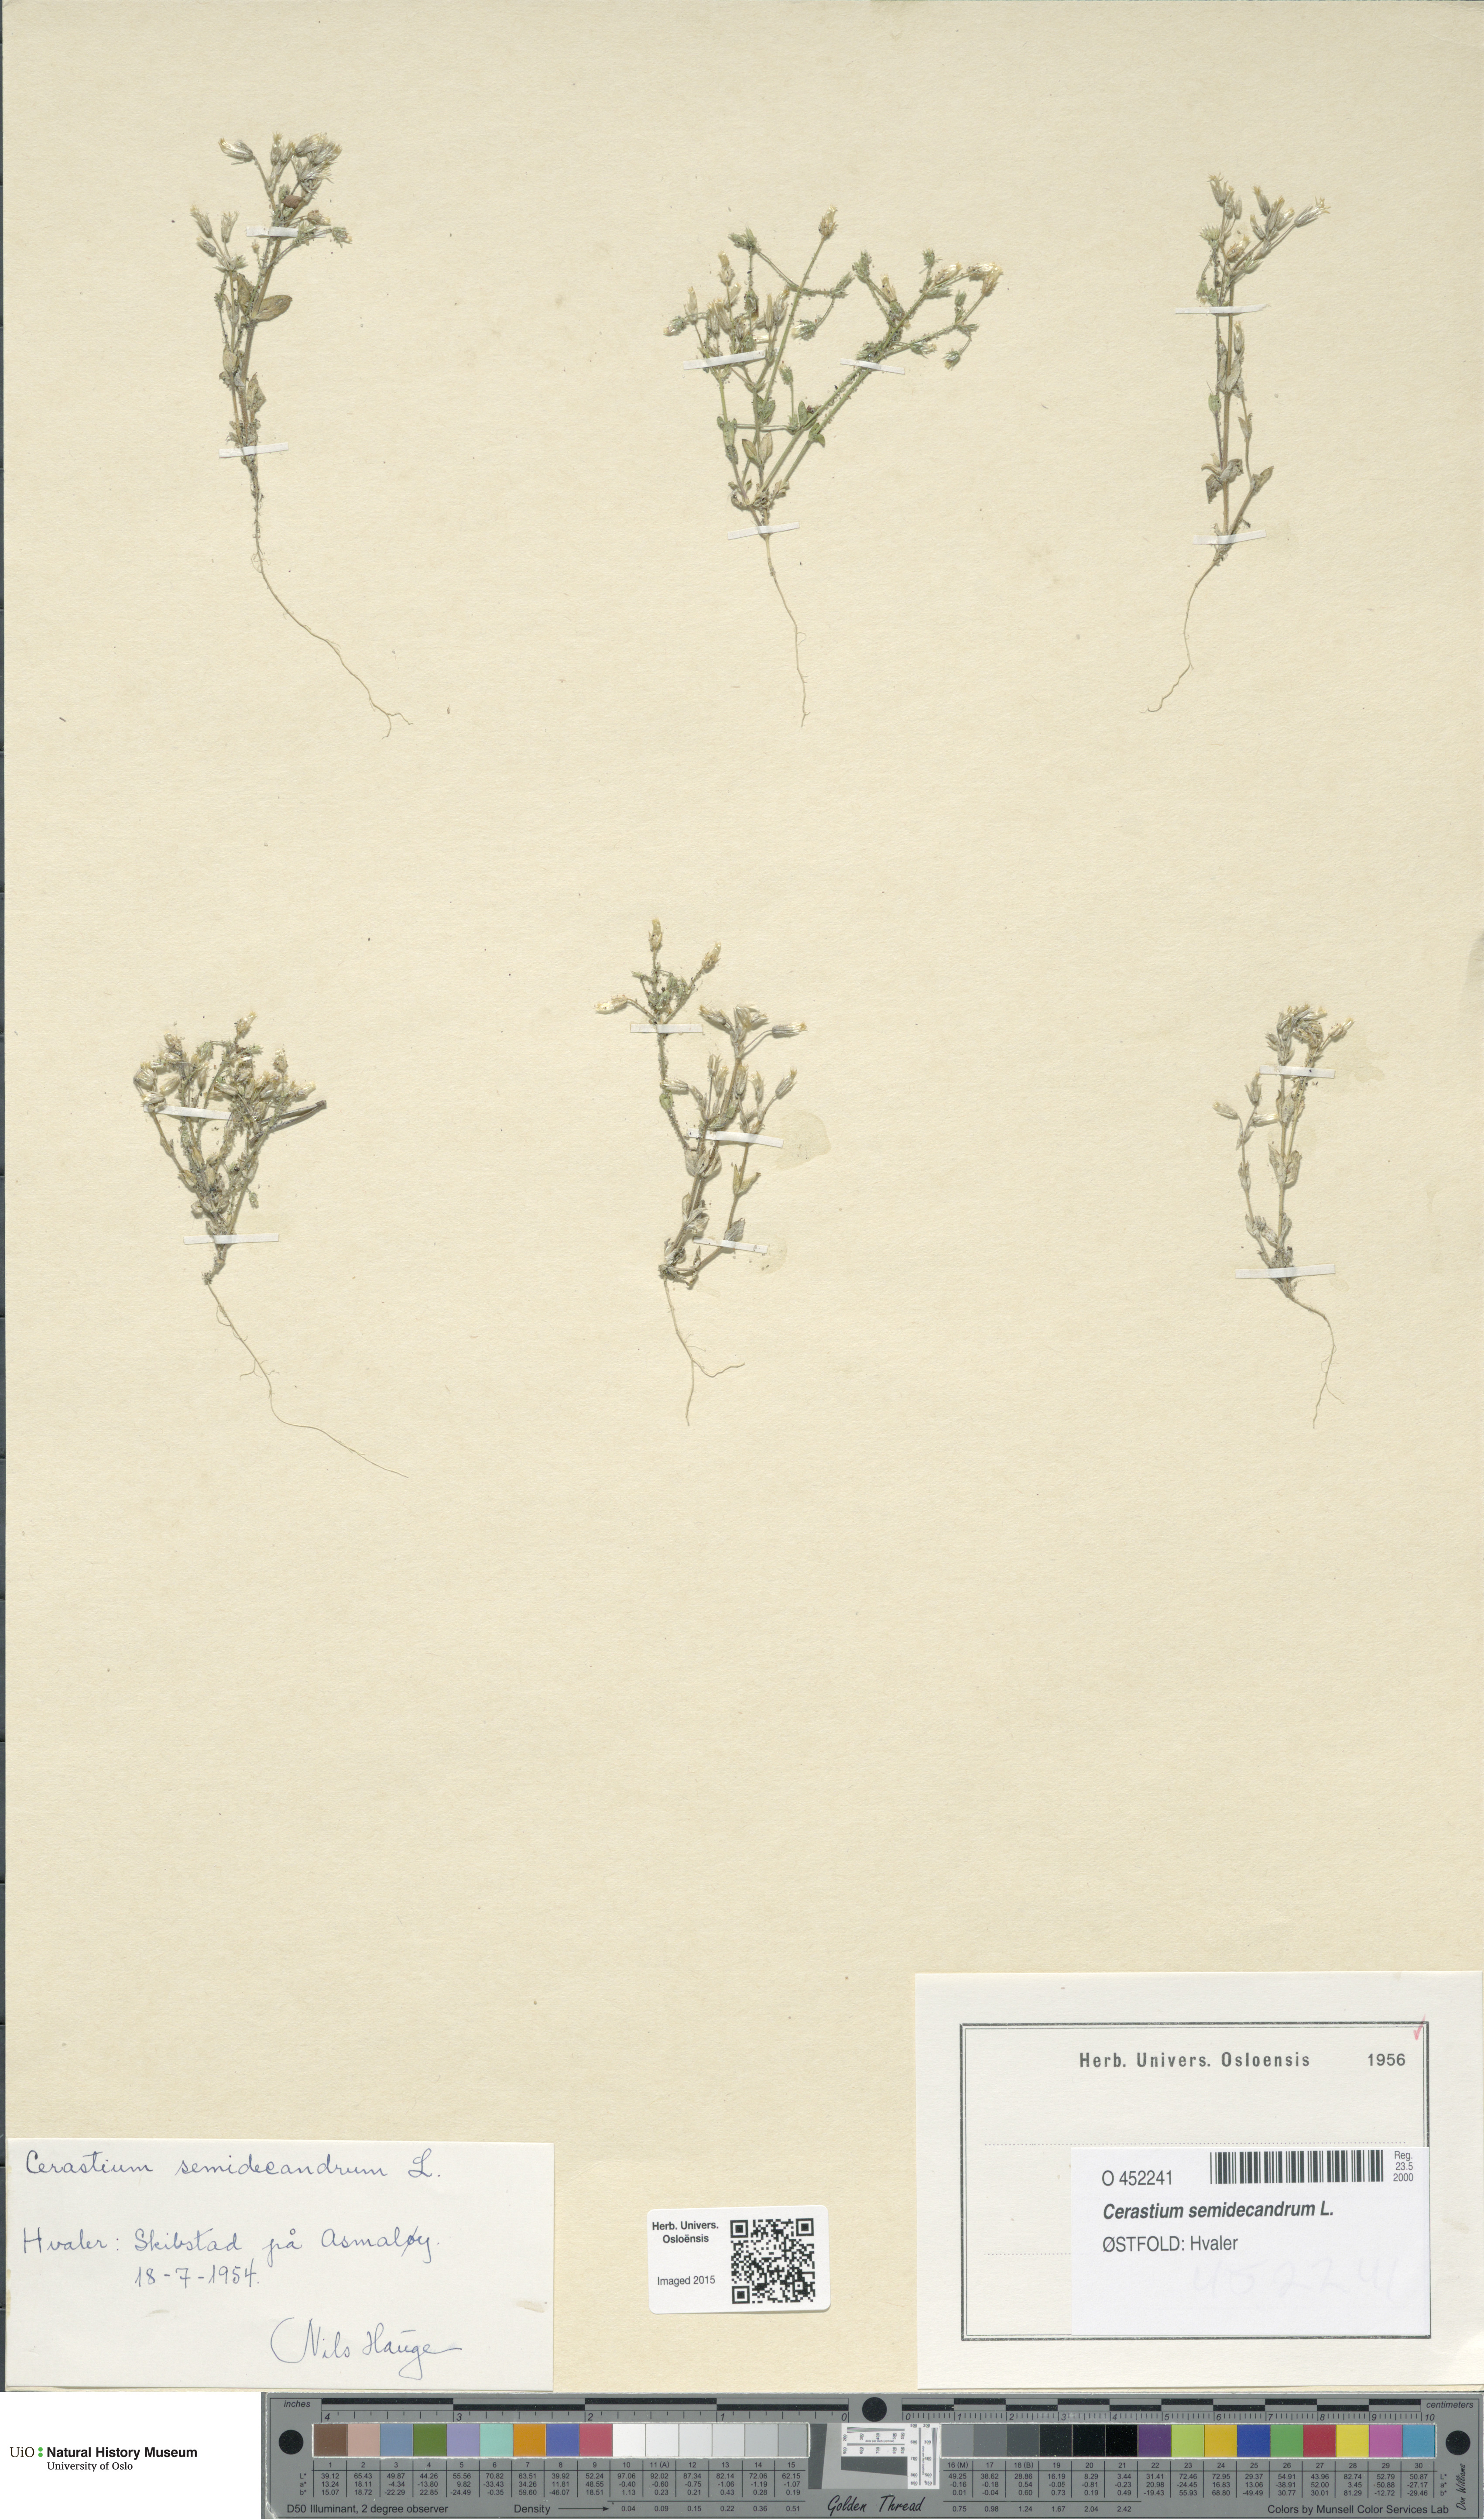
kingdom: Plantae
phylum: Tracheophyta
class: Magnoliopsida
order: Caryophyllales
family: Caryophyllaceae
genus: Cerastium
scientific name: Cerastium semidecandrum
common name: Little mouse-ear
